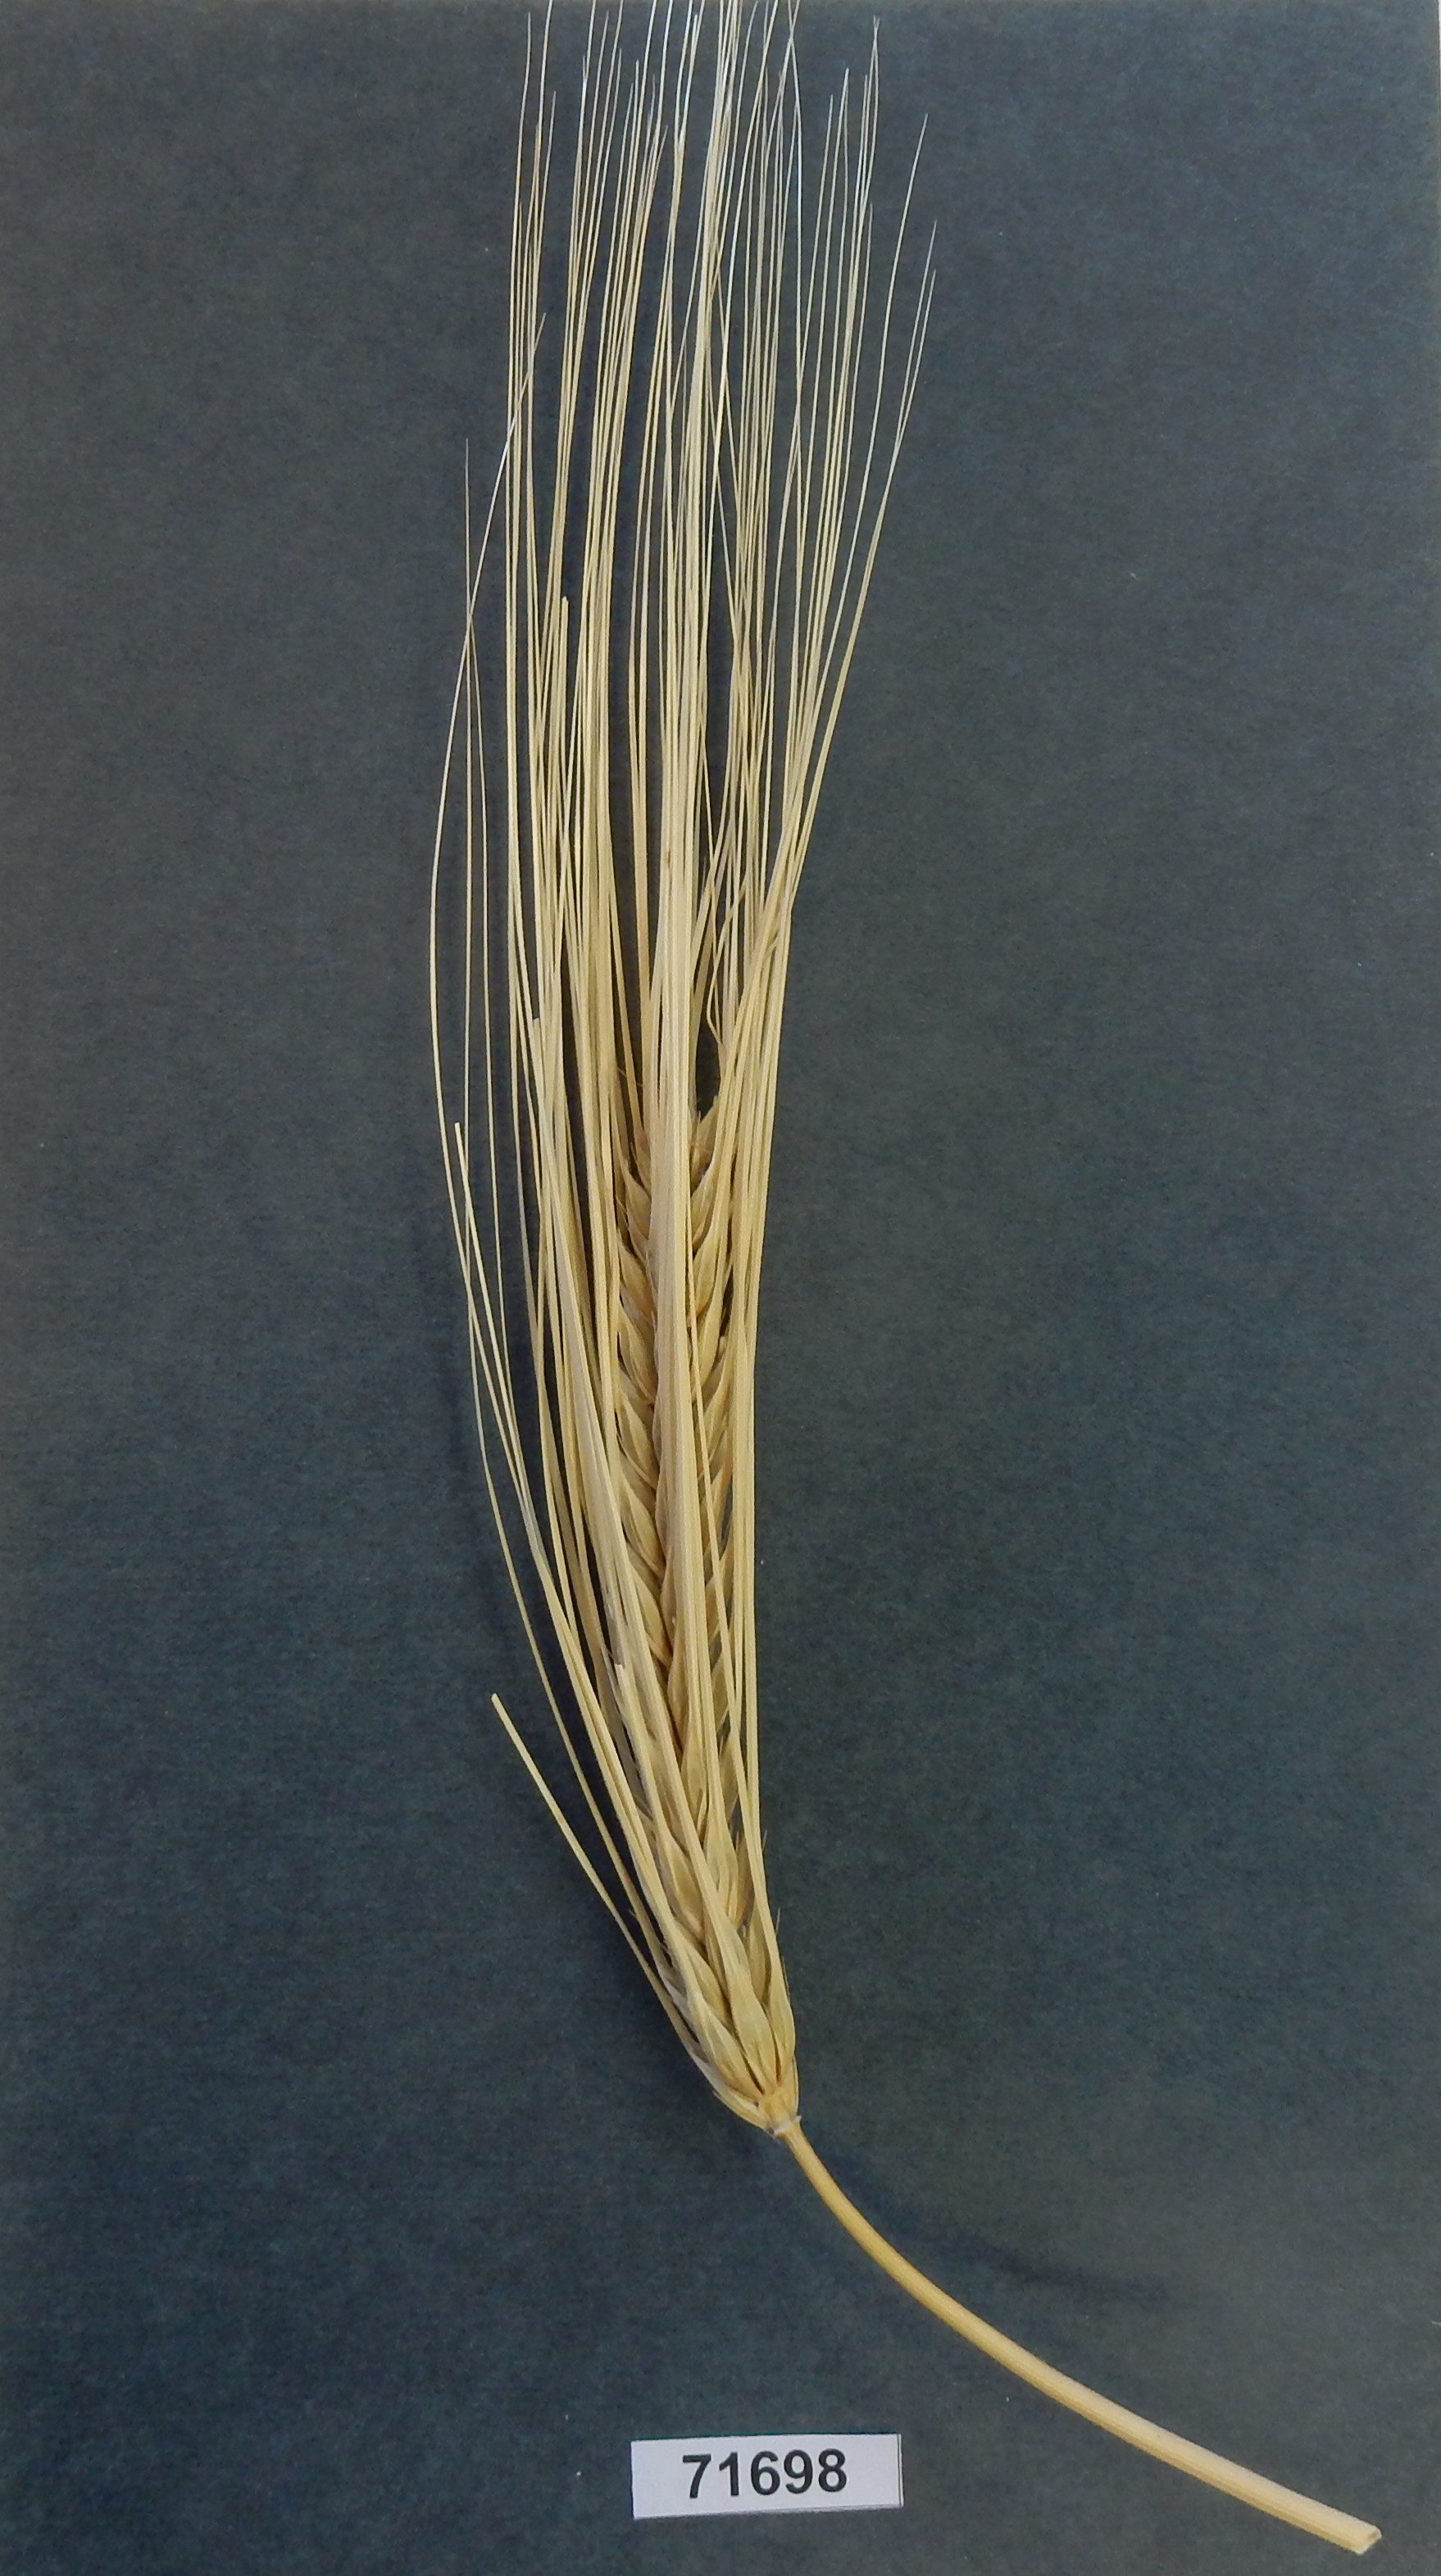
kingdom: Plantae
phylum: Tracheophyta
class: Liliopsida
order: Poales
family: Poaceae
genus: Hordeum
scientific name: Hordeum vulgare
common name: Barley
